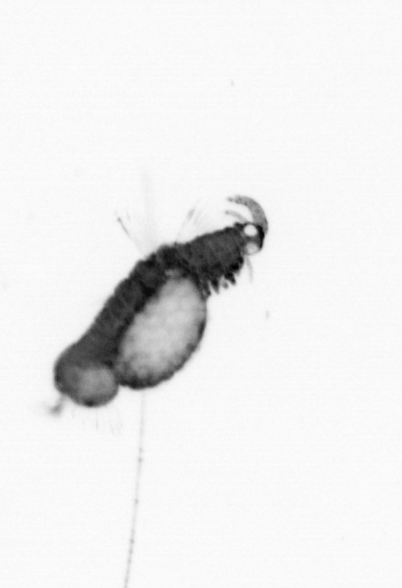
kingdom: Animalia
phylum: Annelida
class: Polychaeta
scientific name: Polychaeta
